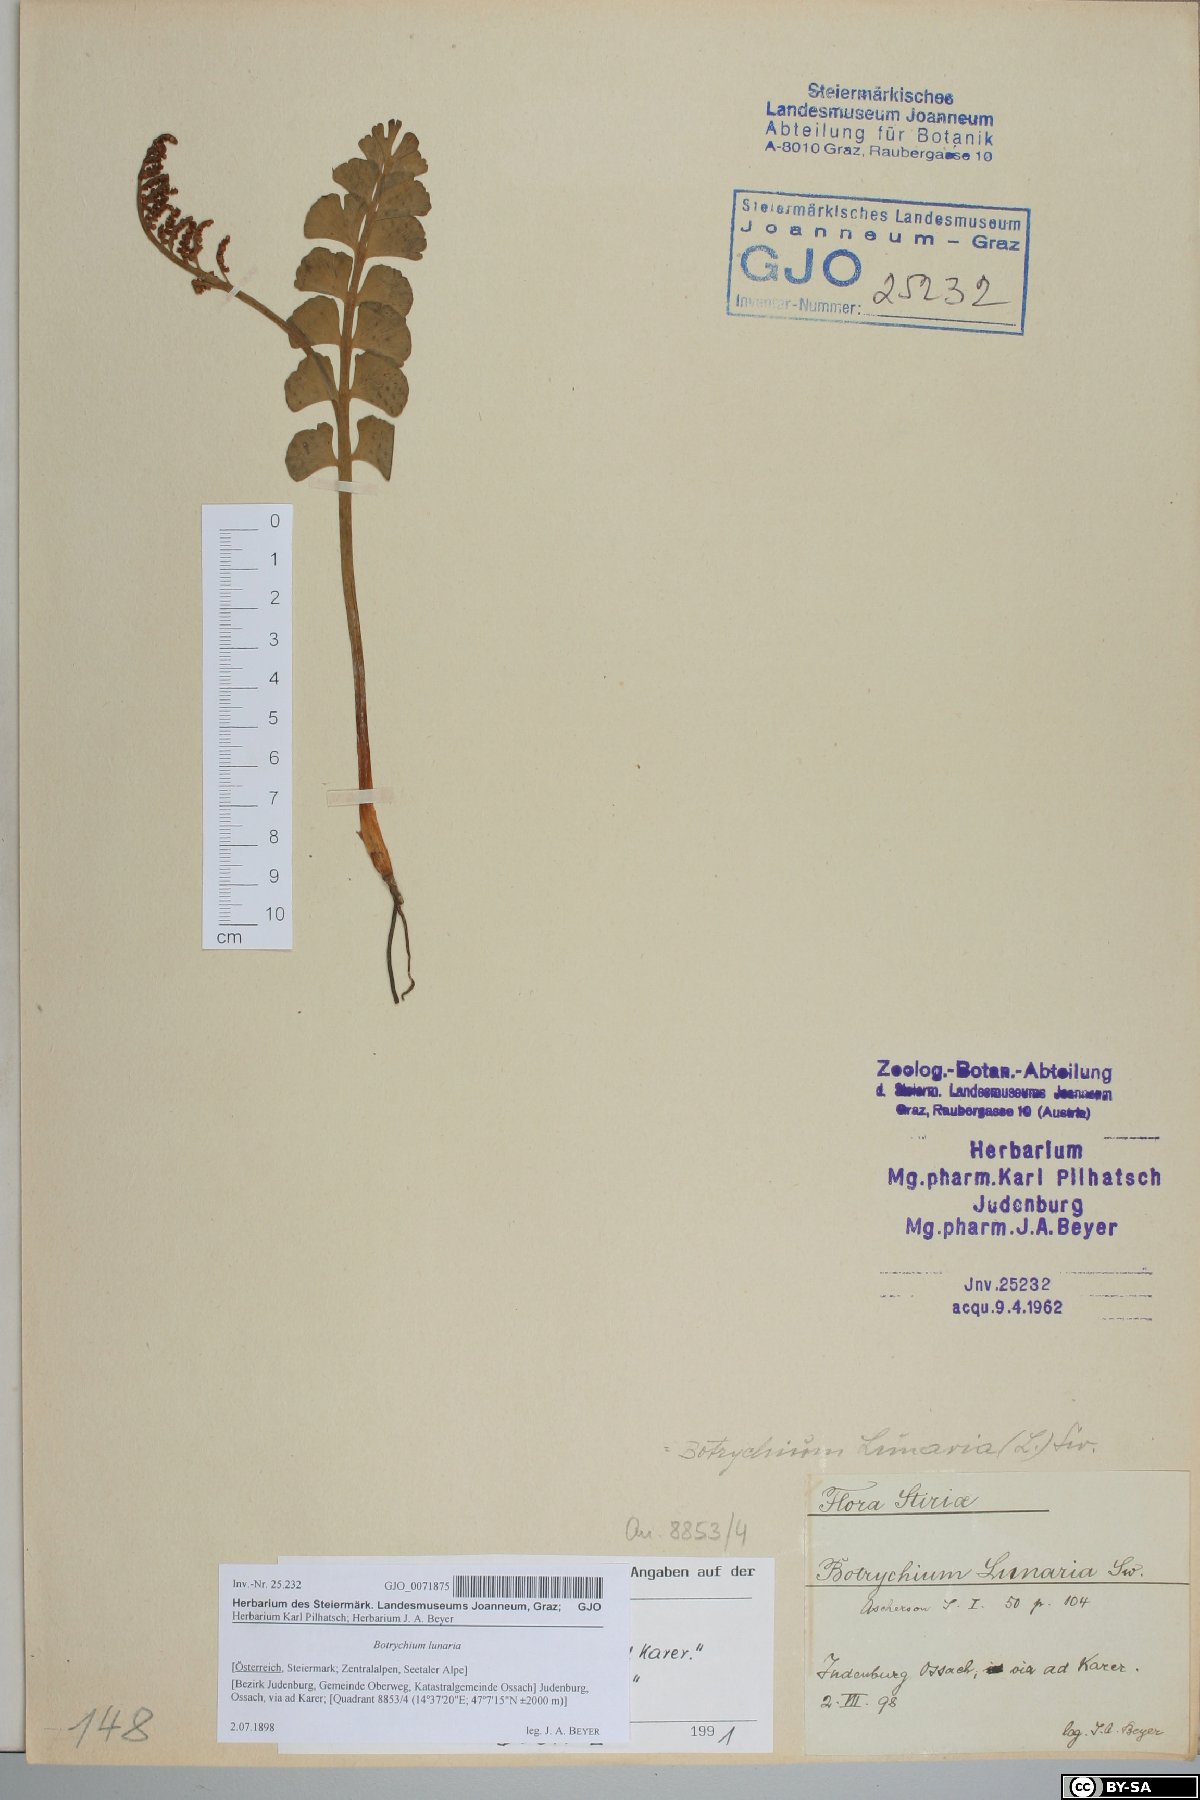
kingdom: Plantae
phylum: Tracheophyta
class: Polypodiopsida
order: Ophioglossales
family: Ophioglossaceae
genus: Botrychium
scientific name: Botrychium lunaria
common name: Moonwort
